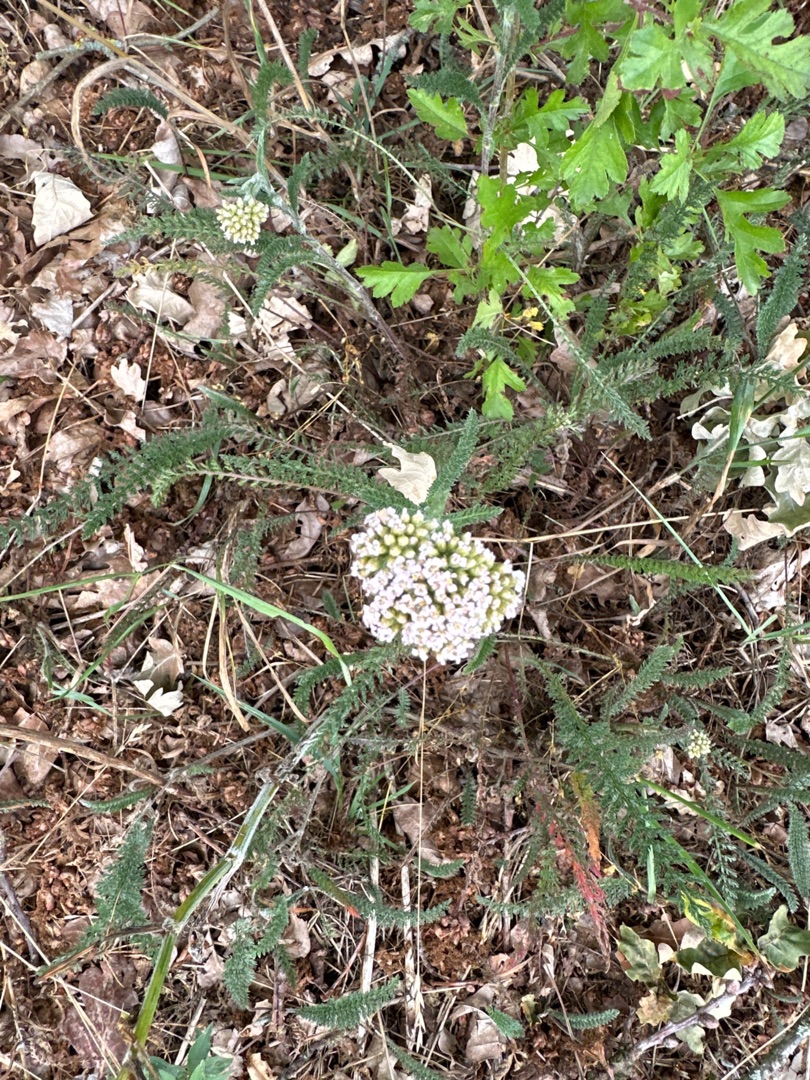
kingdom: Plantae
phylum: Tracheophyta
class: Magnoliopsida
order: Asterales
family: Asteraceae
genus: Achillea
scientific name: Achillea millefolium
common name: Almindelig røllike
